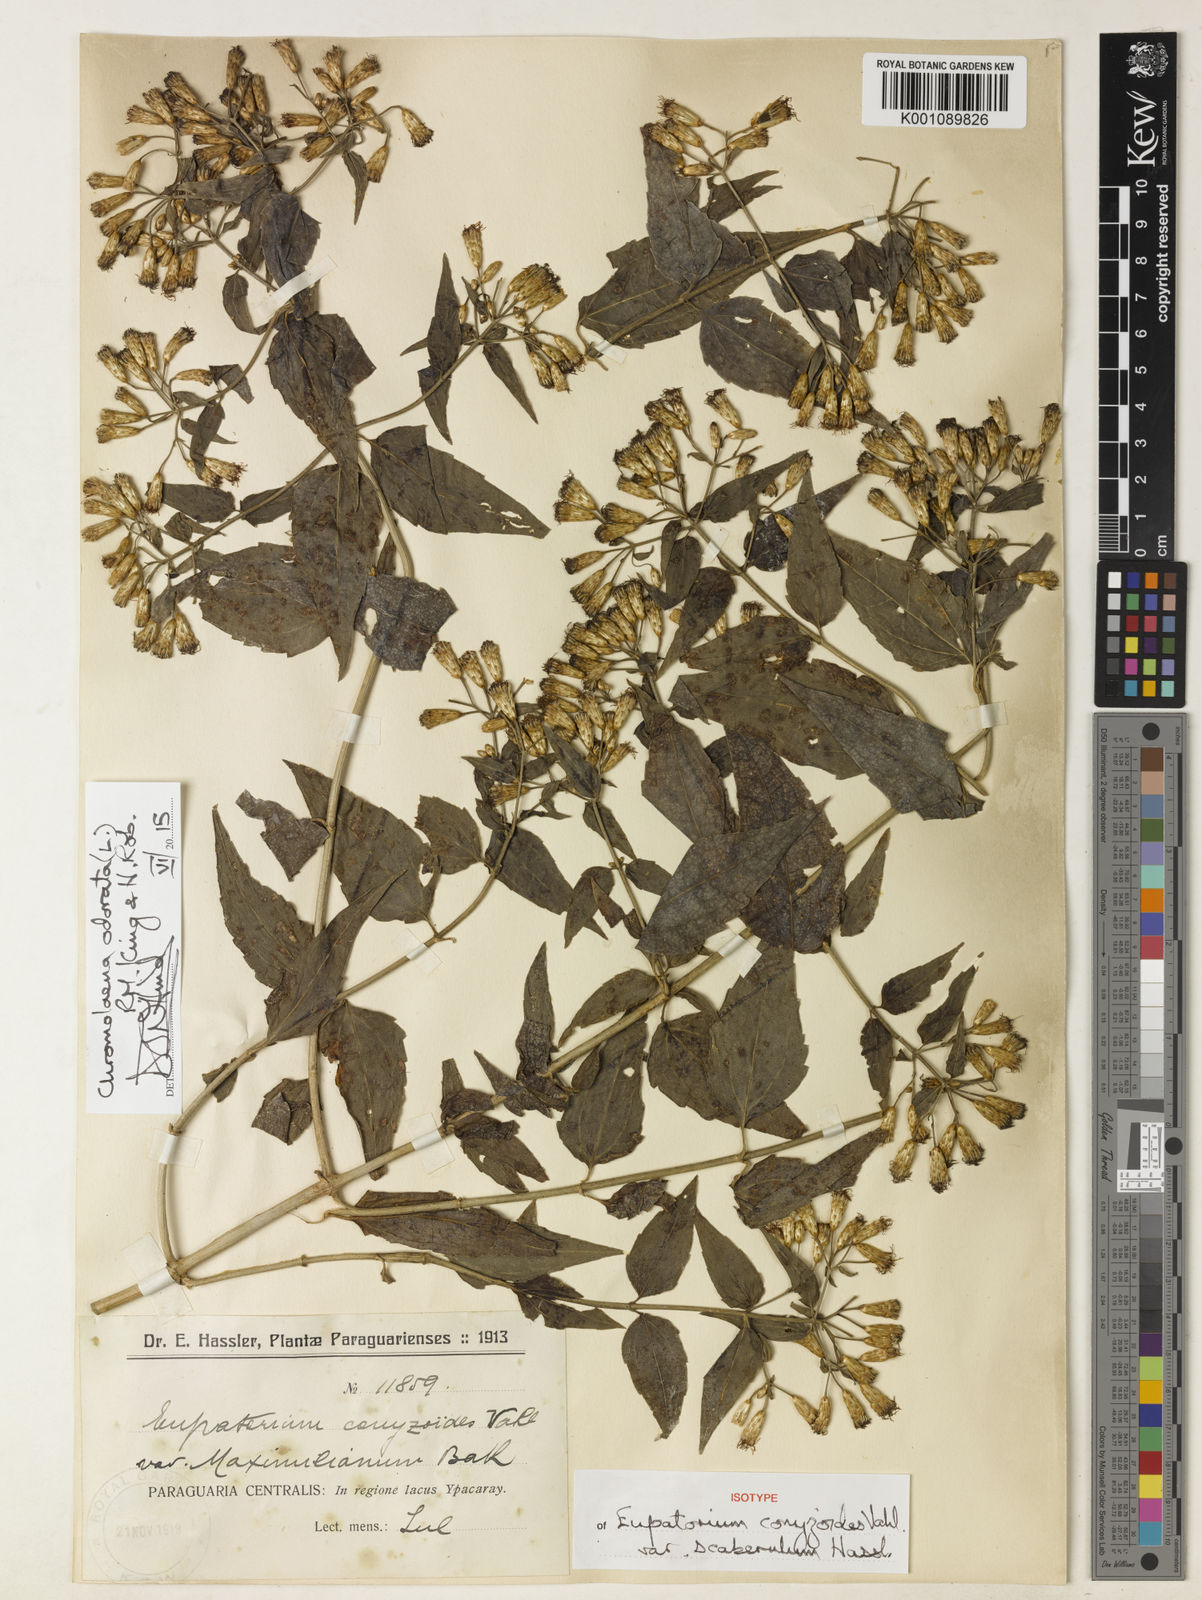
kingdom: Plantae
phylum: Tracheophyta
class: Magnoliopsida
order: Asterales
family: Asteraceae
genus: Chromolaena
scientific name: Chromolaena odorata
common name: Siamweed
